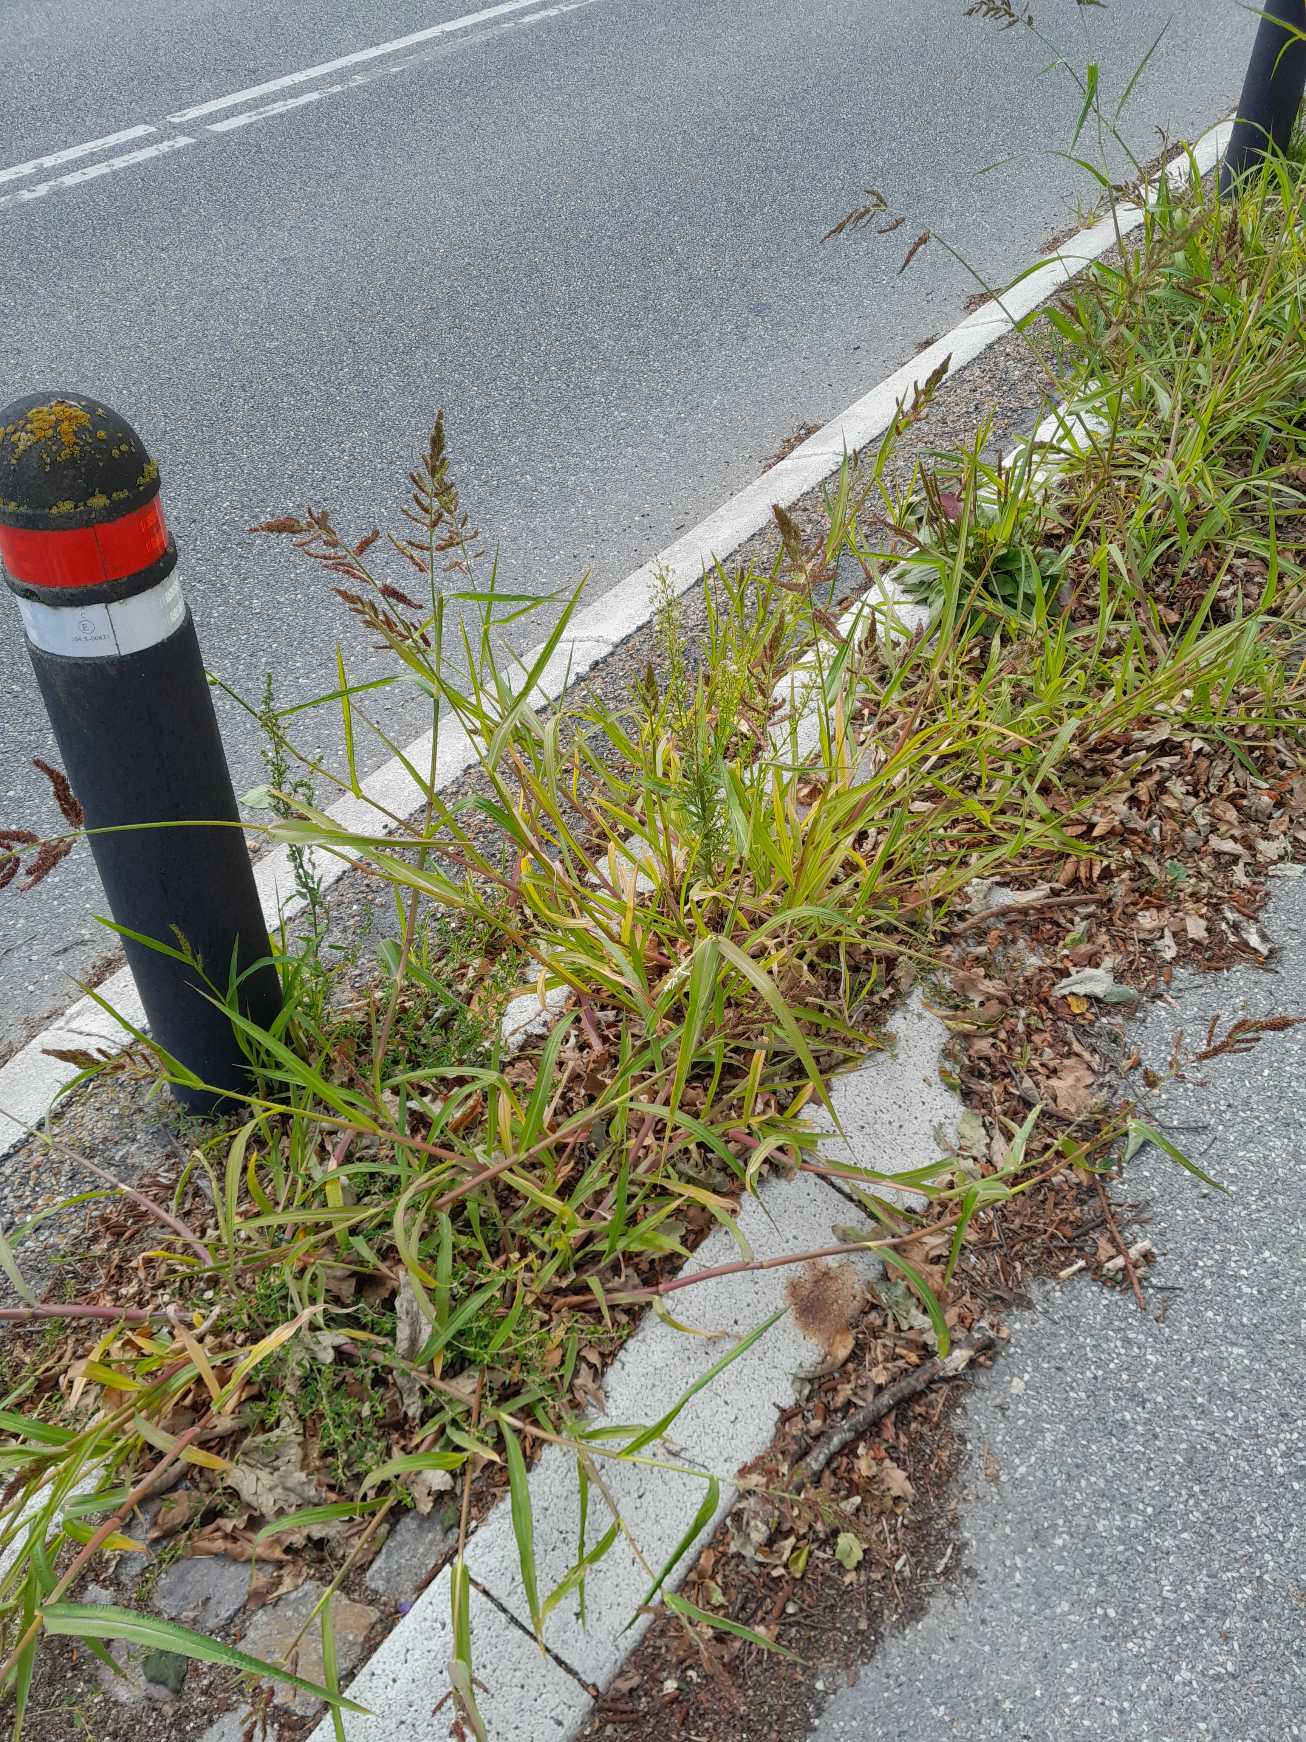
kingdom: Plantae
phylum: Tracheophyta
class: Liliopsida
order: Poales
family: Poaceae
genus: Echinochloa
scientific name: Echinochloa crus-galli
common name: Almindelig hanespore
